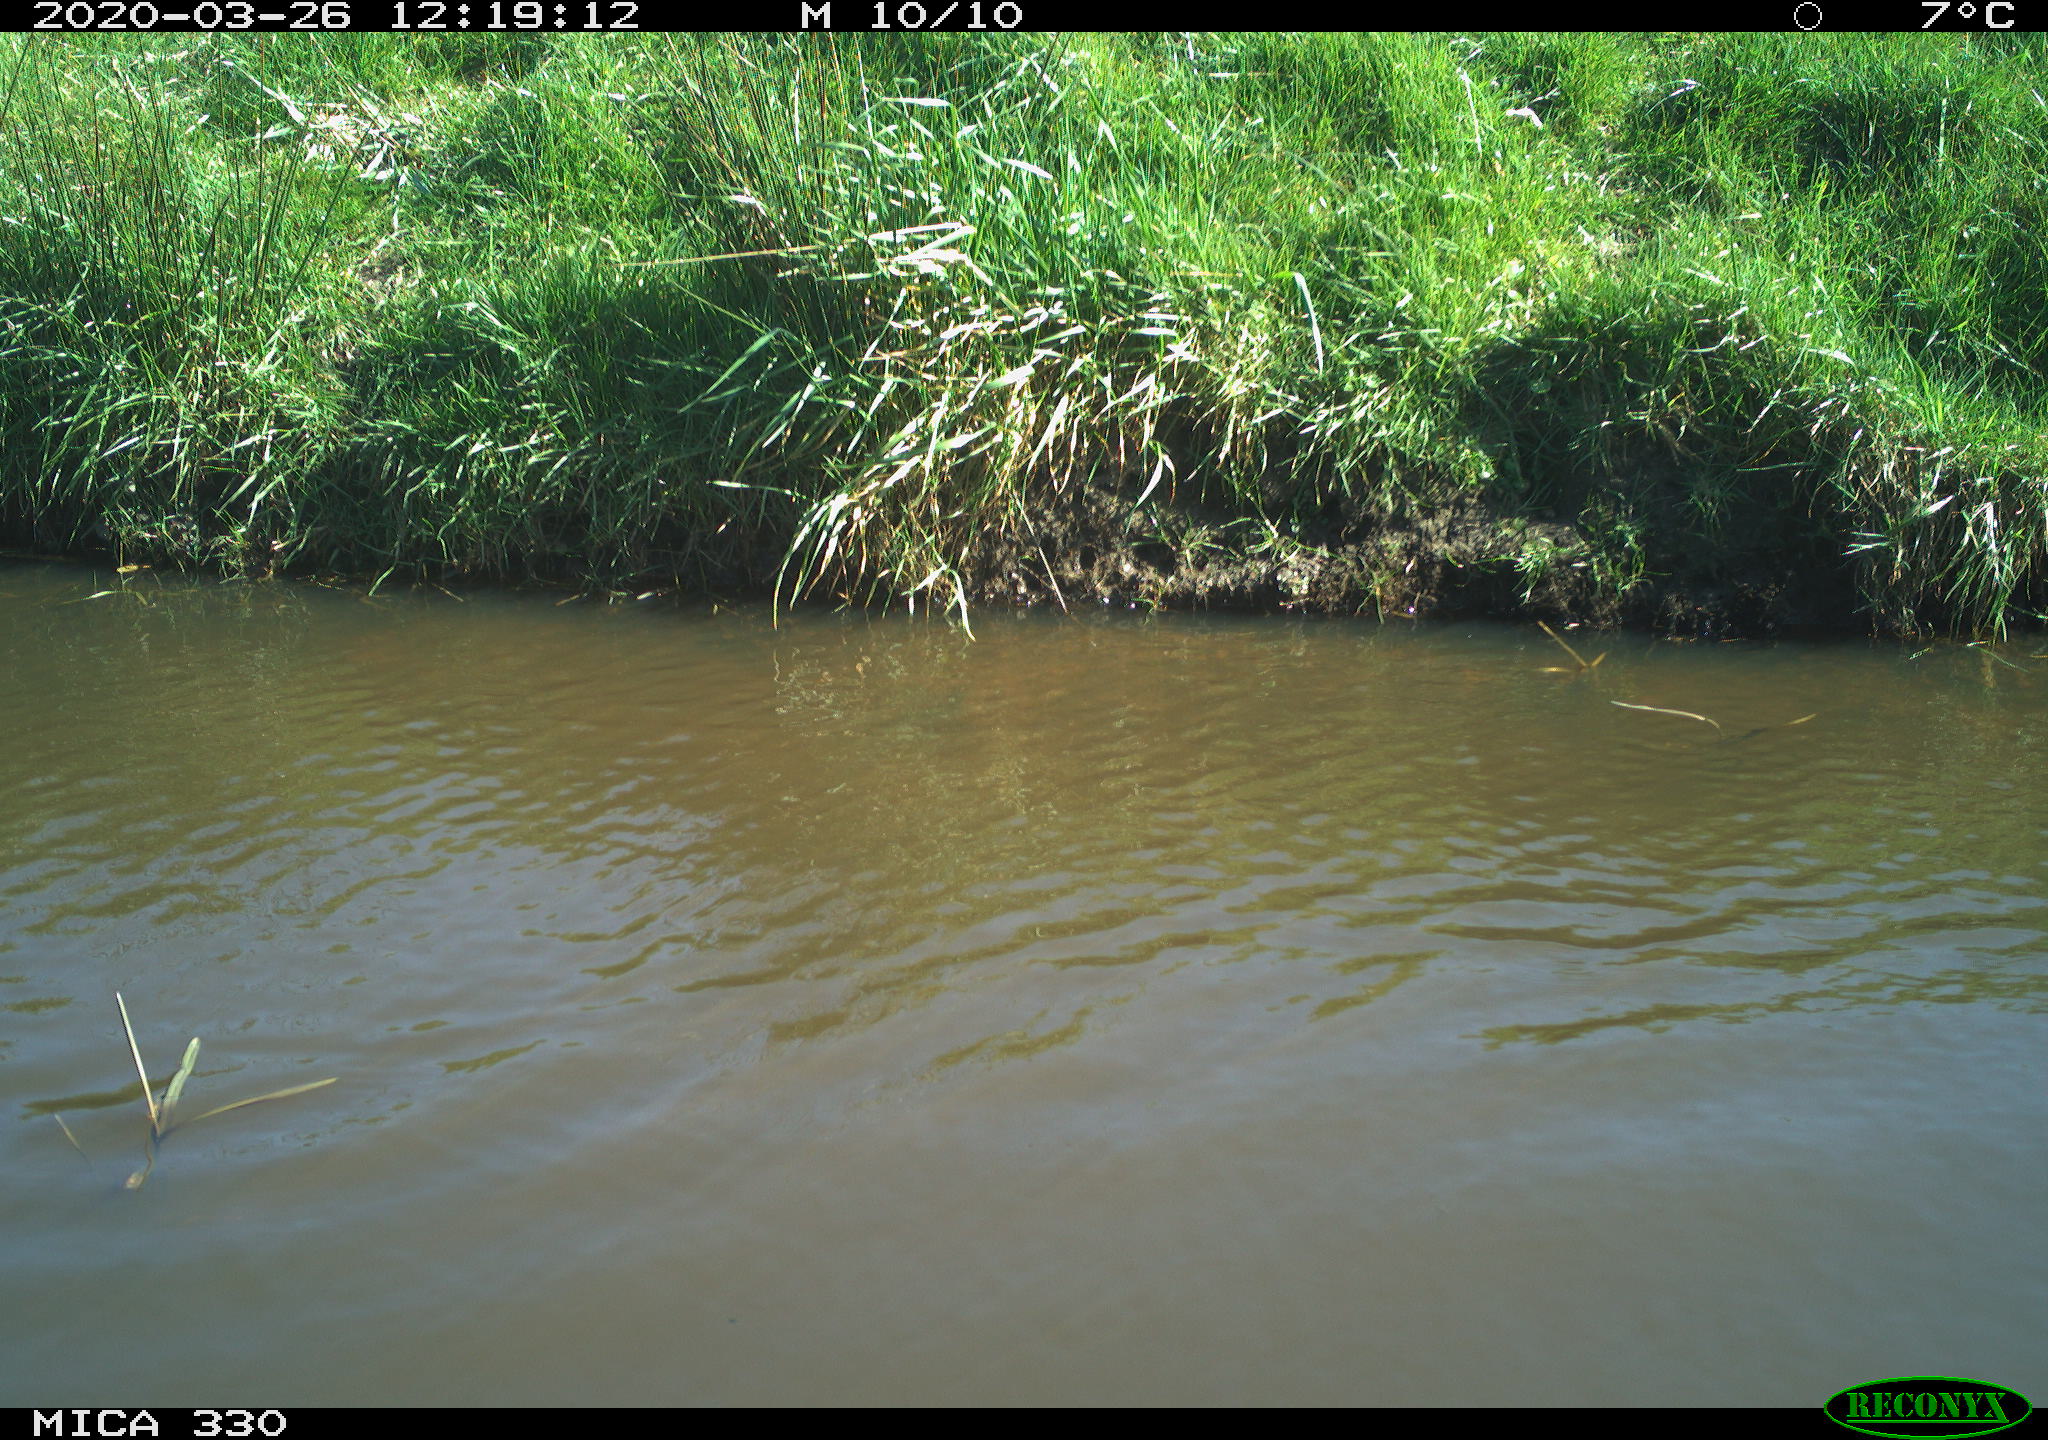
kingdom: Animalia
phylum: Chordata
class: Aves
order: Anseriformes
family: Anatidae
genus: Anas
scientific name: Anas platyrhynchos
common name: Mallard
